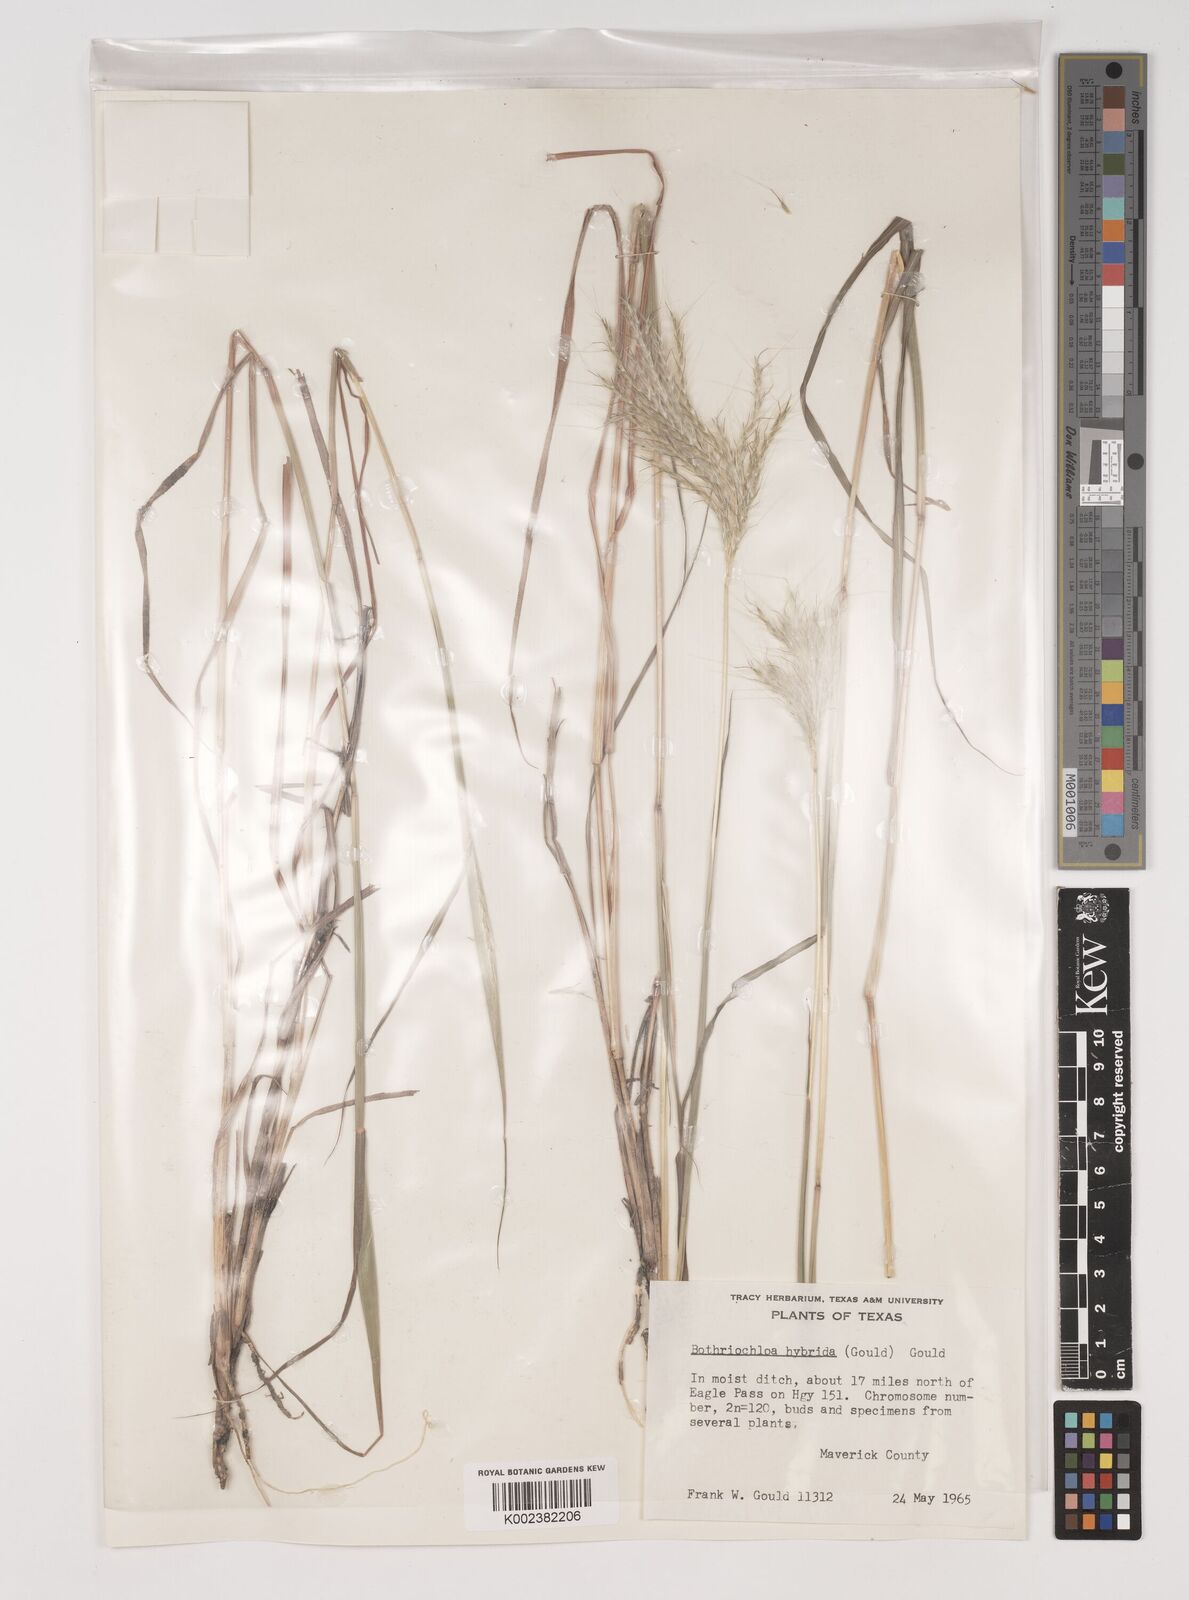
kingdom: Plantae
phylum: Tracheophyta
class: Liliopsida
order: Poales
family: Poaceae
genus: Bothriochloa
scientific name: Bothriochloa hybrida
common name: Hybrid bluestem
